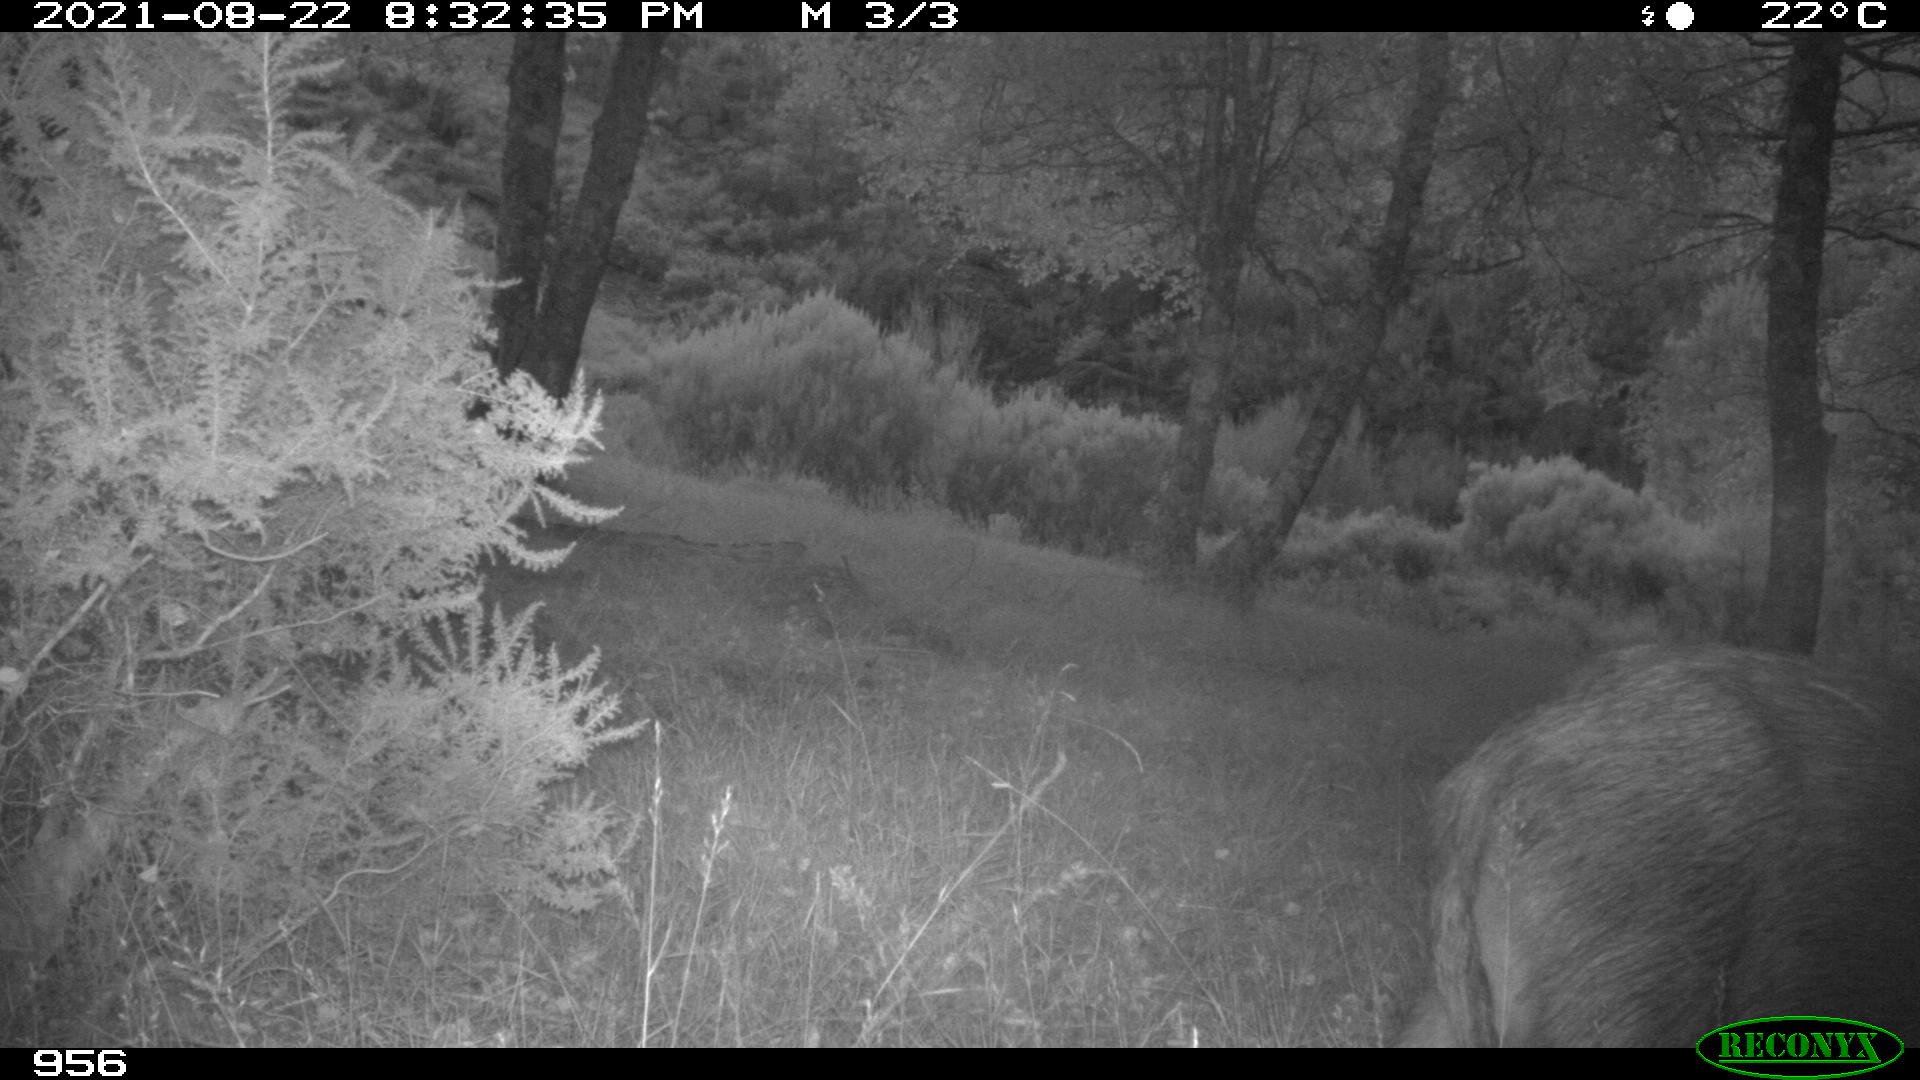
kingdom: Animalia
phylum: Chordata
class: Mammalia
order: Artiodactyla
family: Suidae
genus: Sus
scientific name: Sus scrofa
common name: Wild boar
